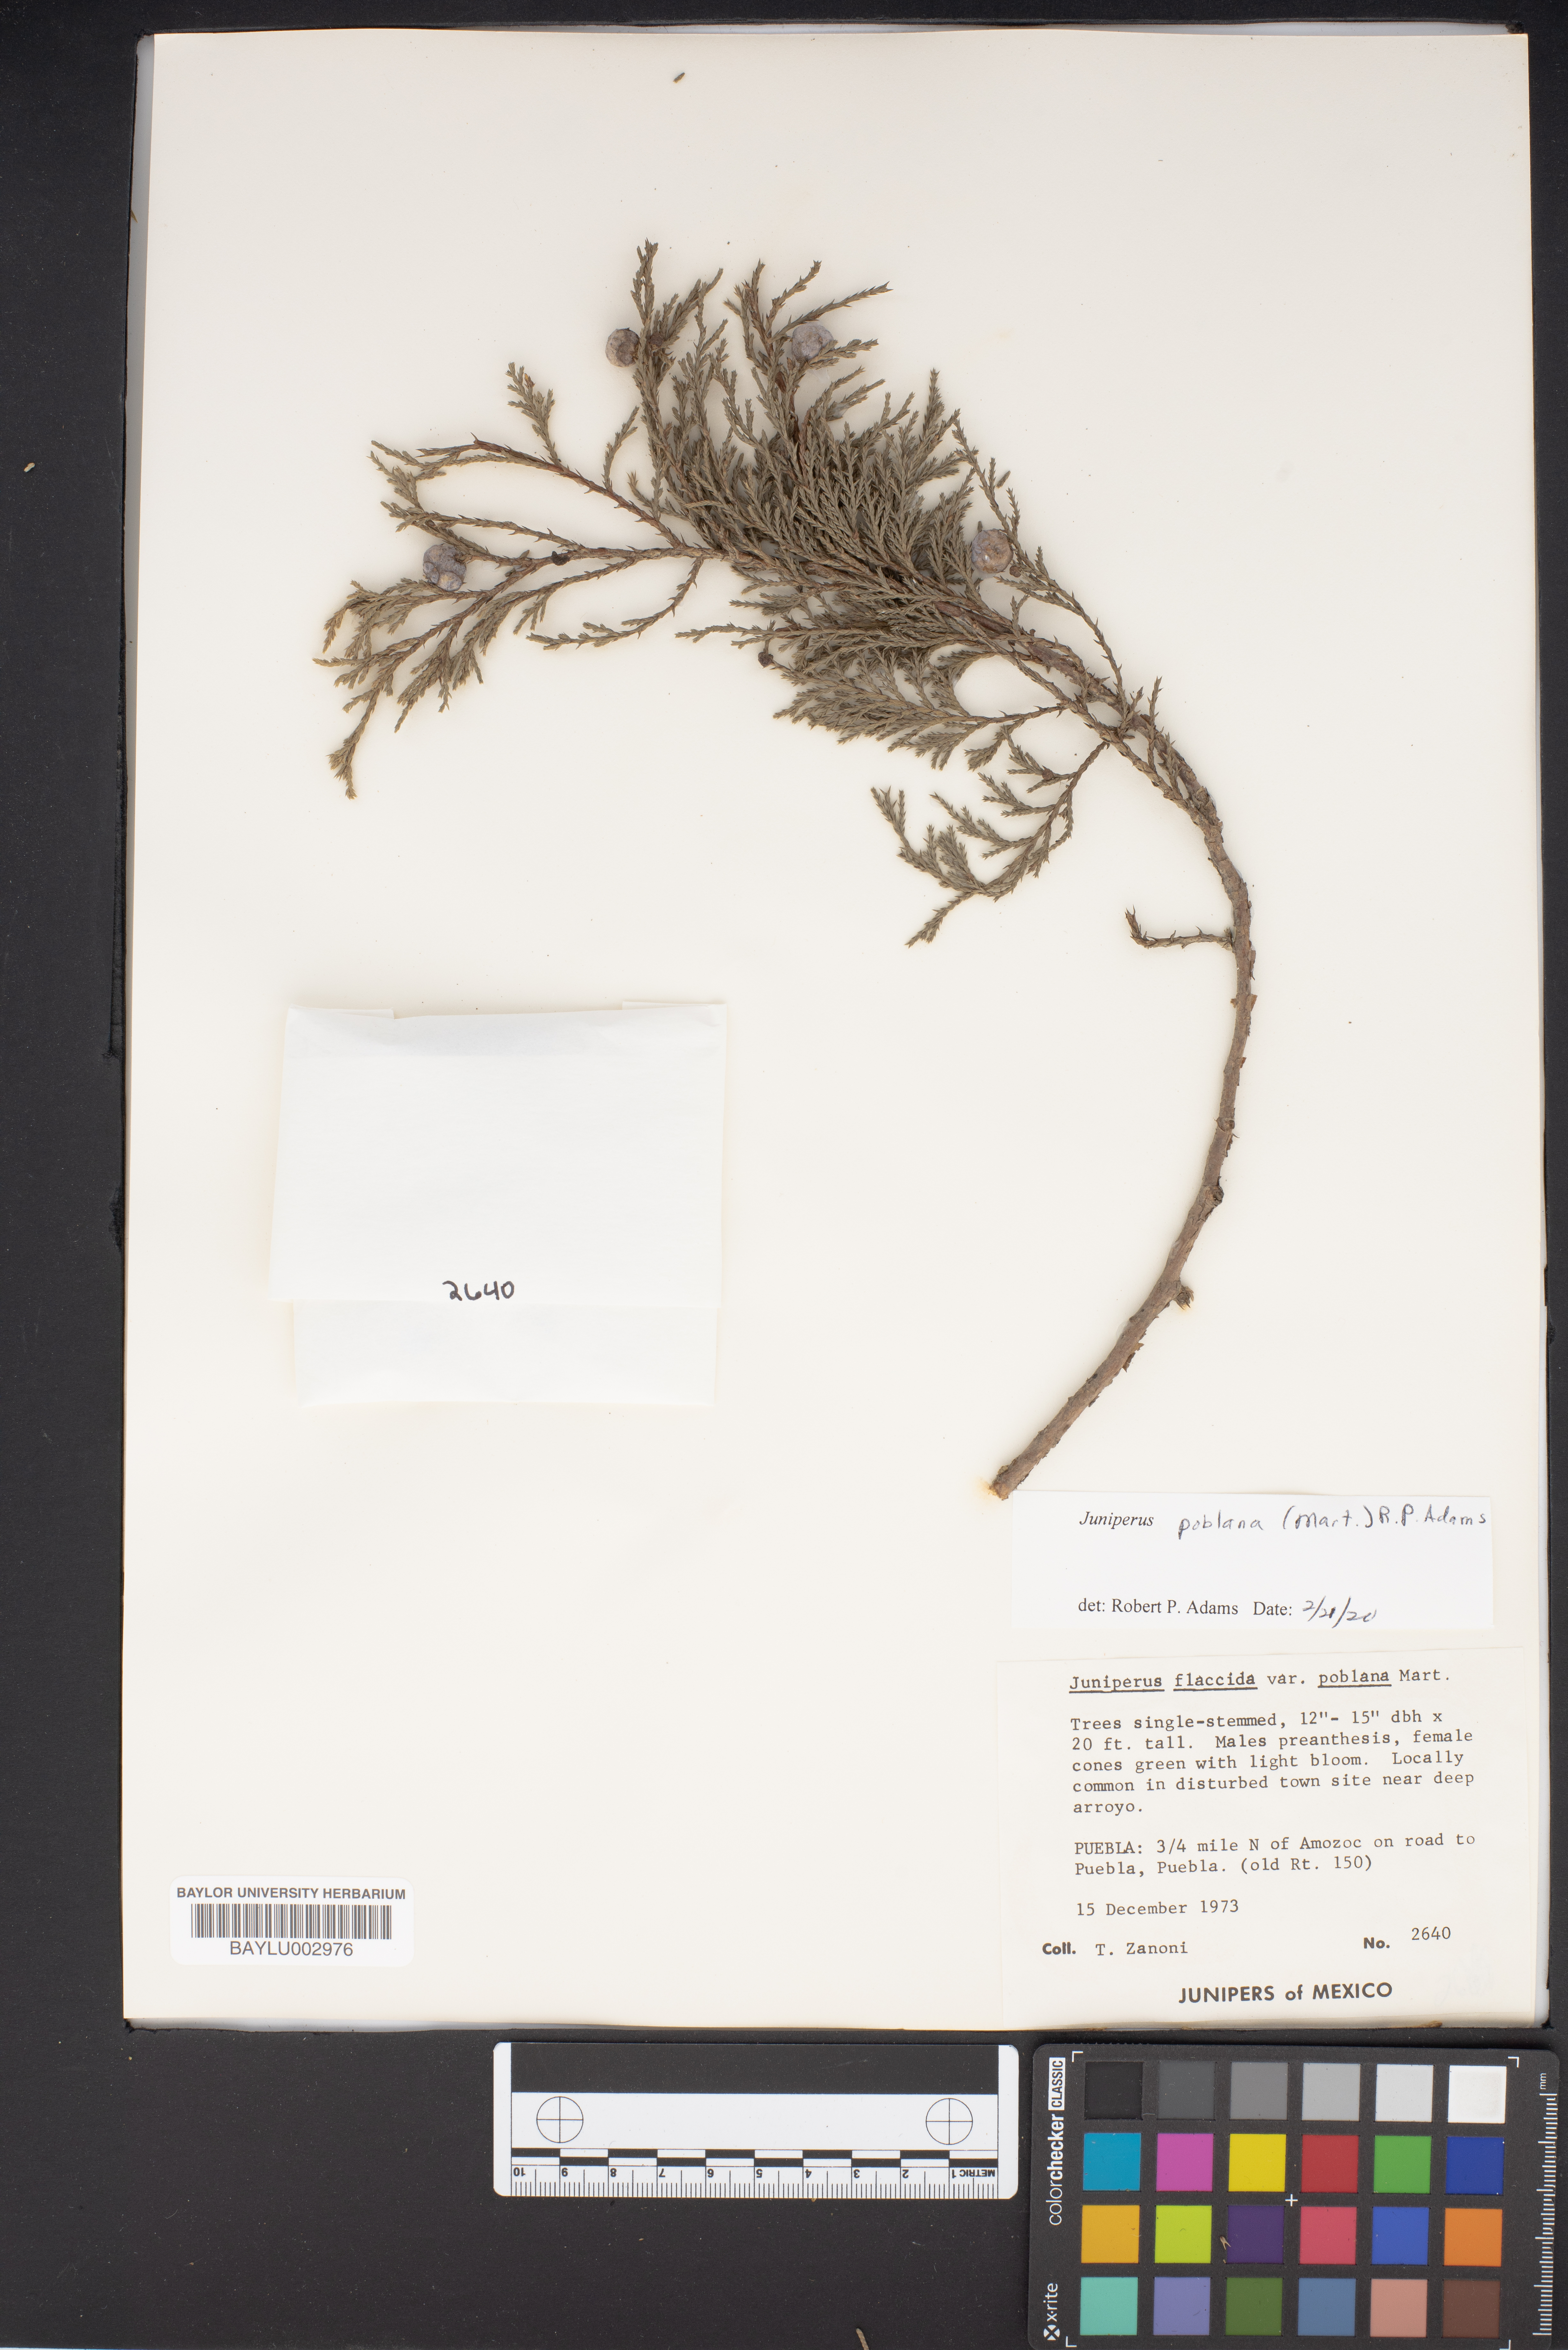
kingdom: Plantae
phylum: Tracheophyta
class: Pinopsida
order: Pinales
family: Cupressaceae
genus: Juniperus
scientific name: Juniperus flaccida
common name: Drooping juniper
